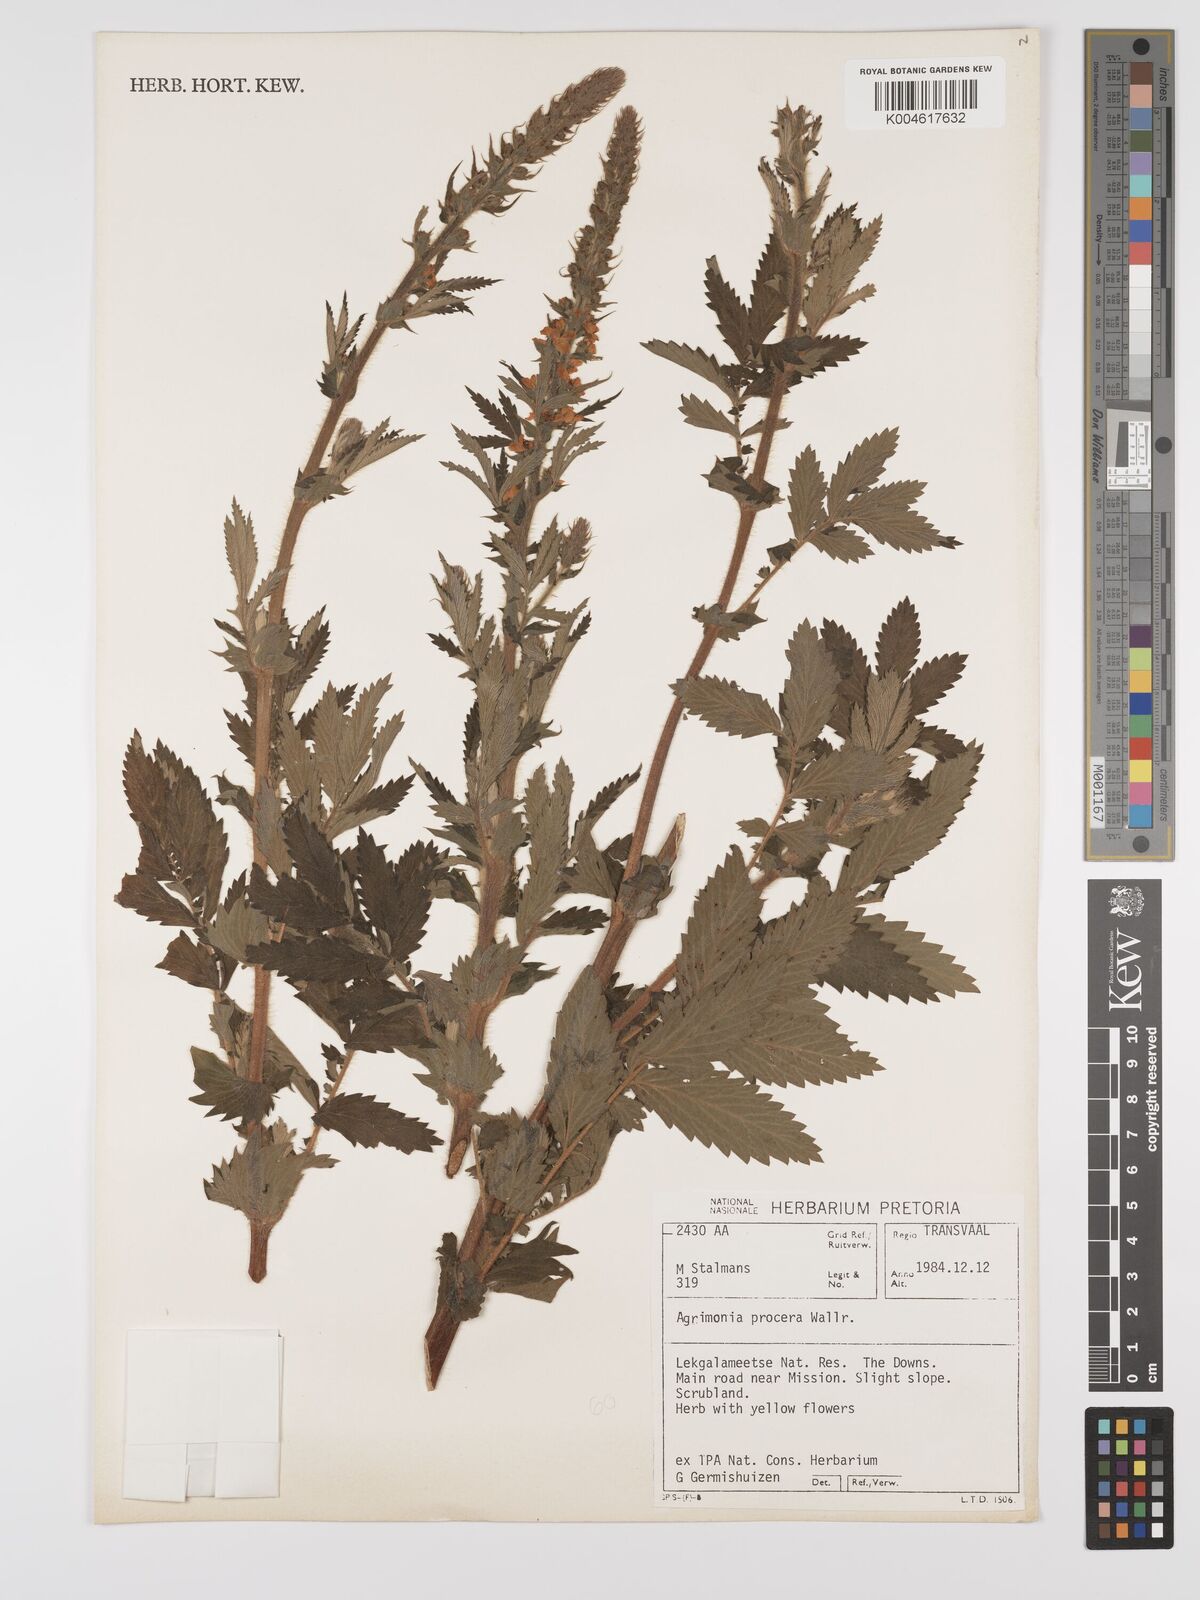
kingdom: Plantae
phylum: Tracheophyta
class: Magnoliopsida
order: Rosales
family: Rosaceae
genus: Agrimonia
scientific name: Agrimonia procera
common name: Fragrant agrimony
